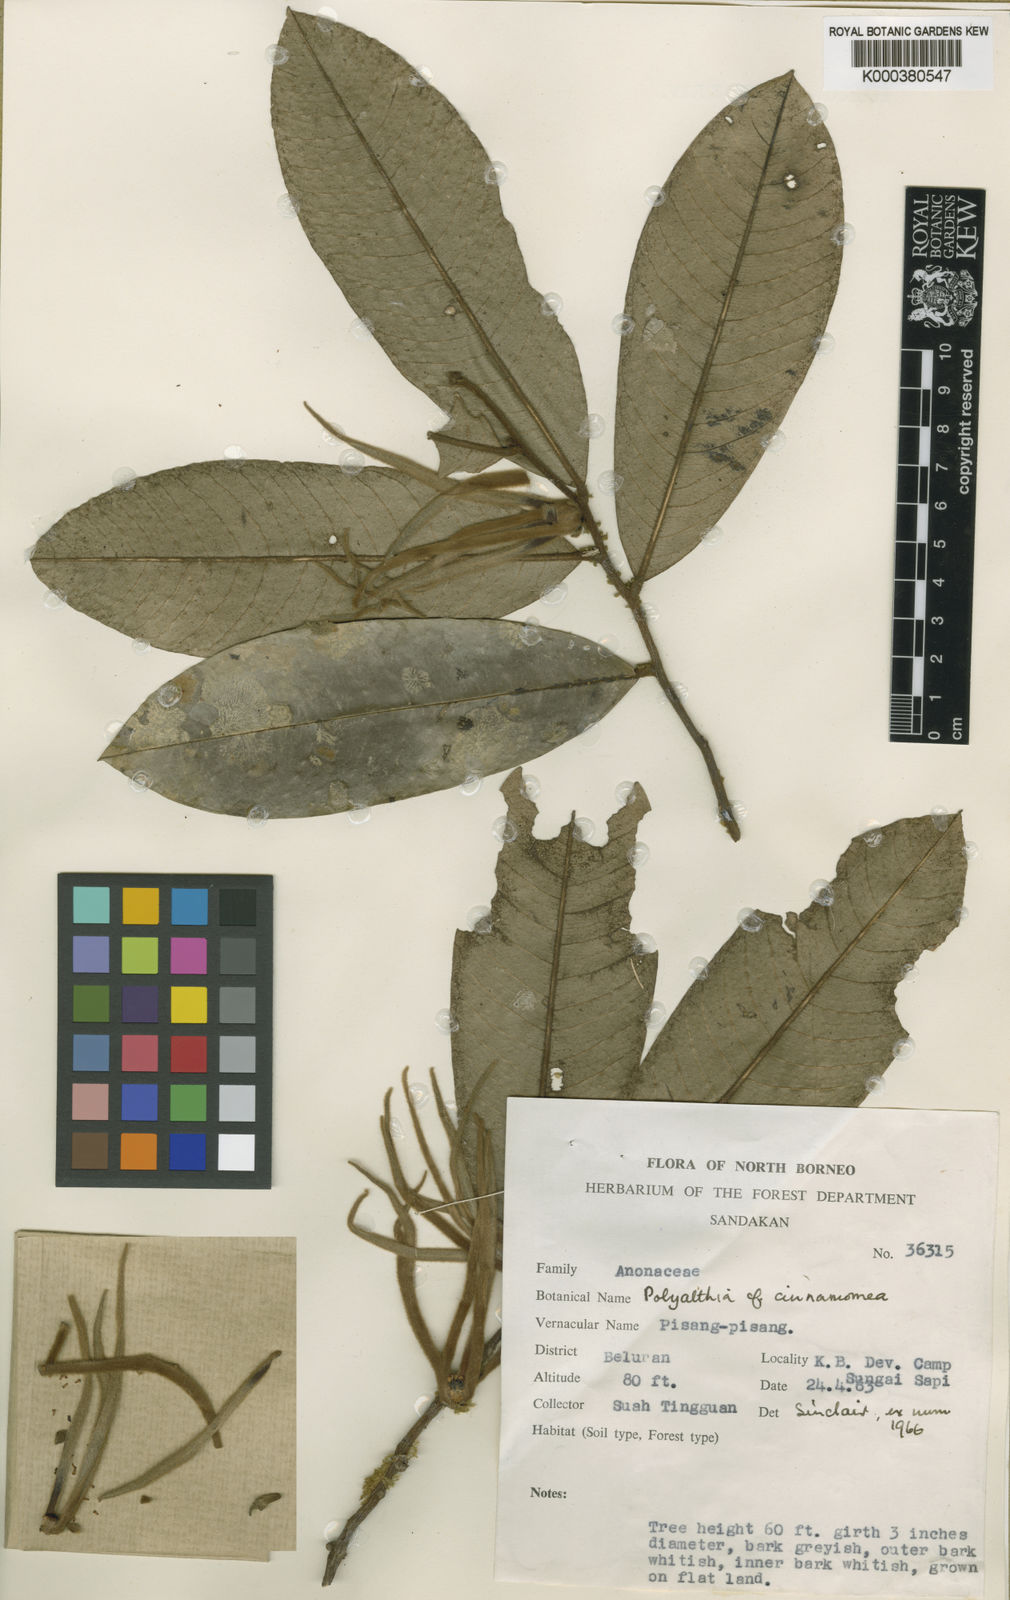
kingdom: Plantae
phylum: Tracheophyta
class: Magnoliopsida
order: Magnoliales
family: Annonaceae
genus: Polyalthia
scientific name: Polyalthia saprosma
